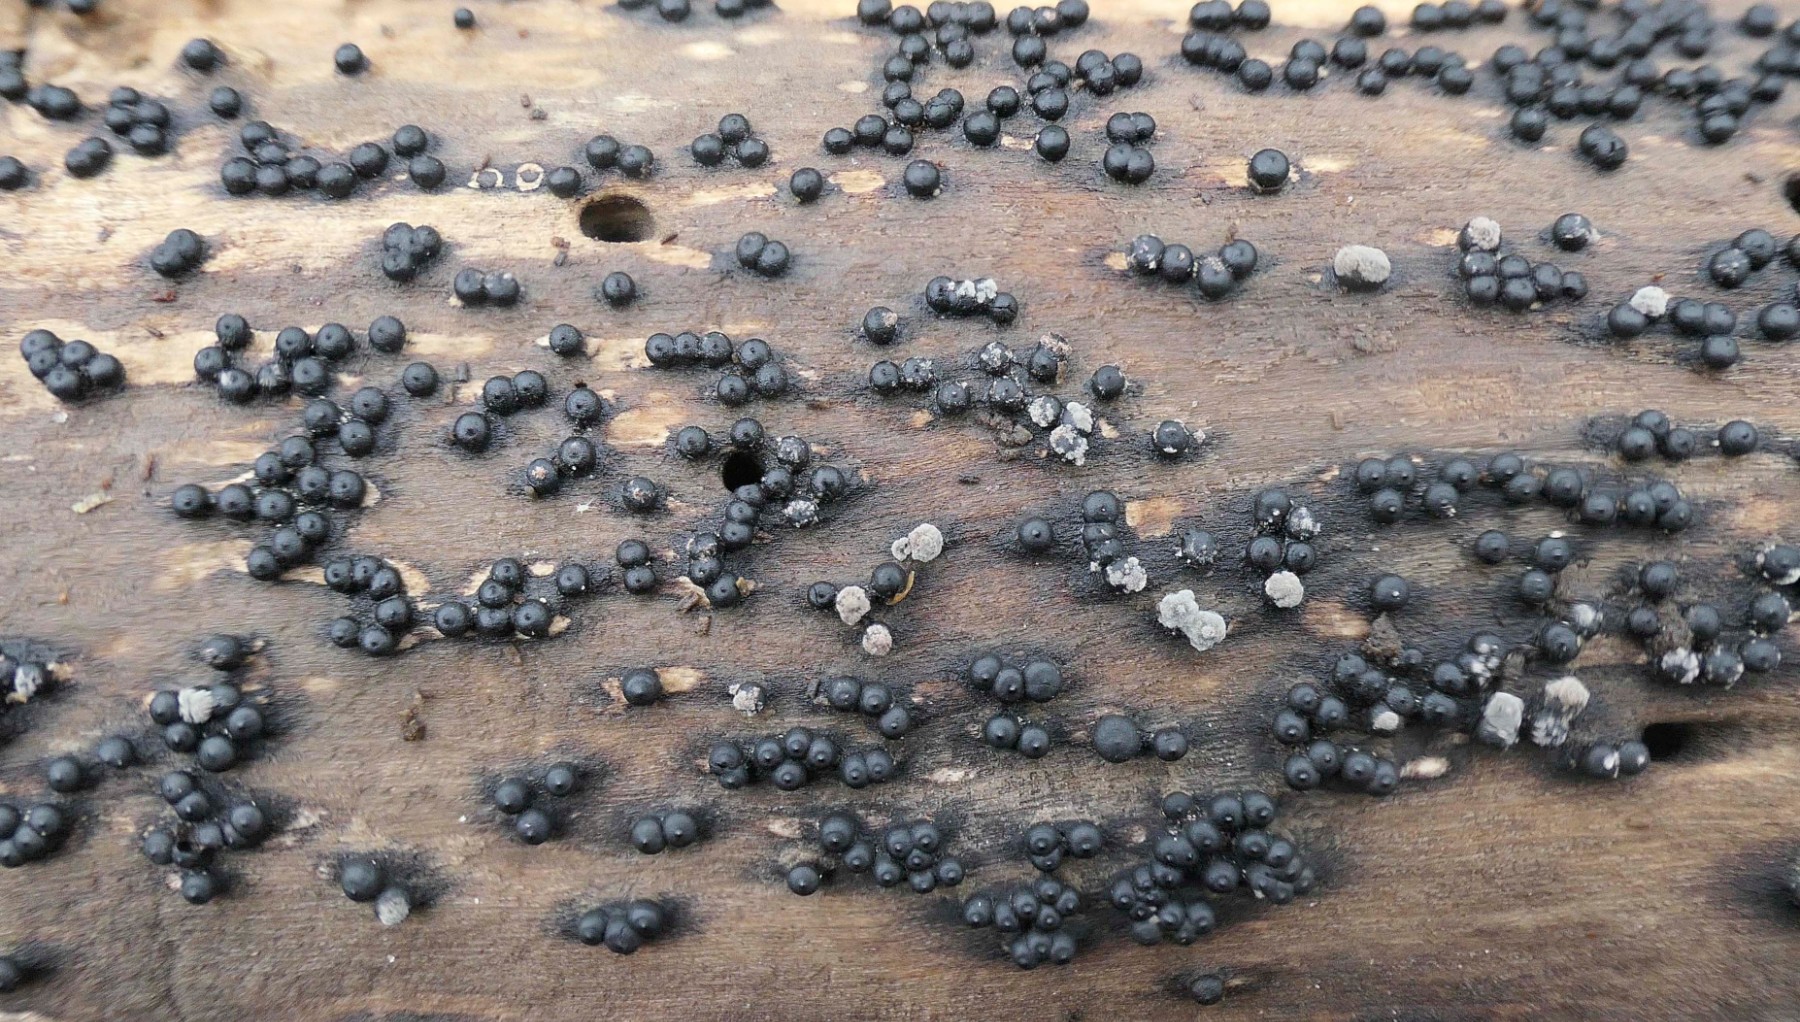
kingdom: Fungi
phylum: Ascomycota
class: Sordariomycetes
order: Xylariales
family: Xylariaceae
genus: Rosellinia
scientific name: Rosellinia
